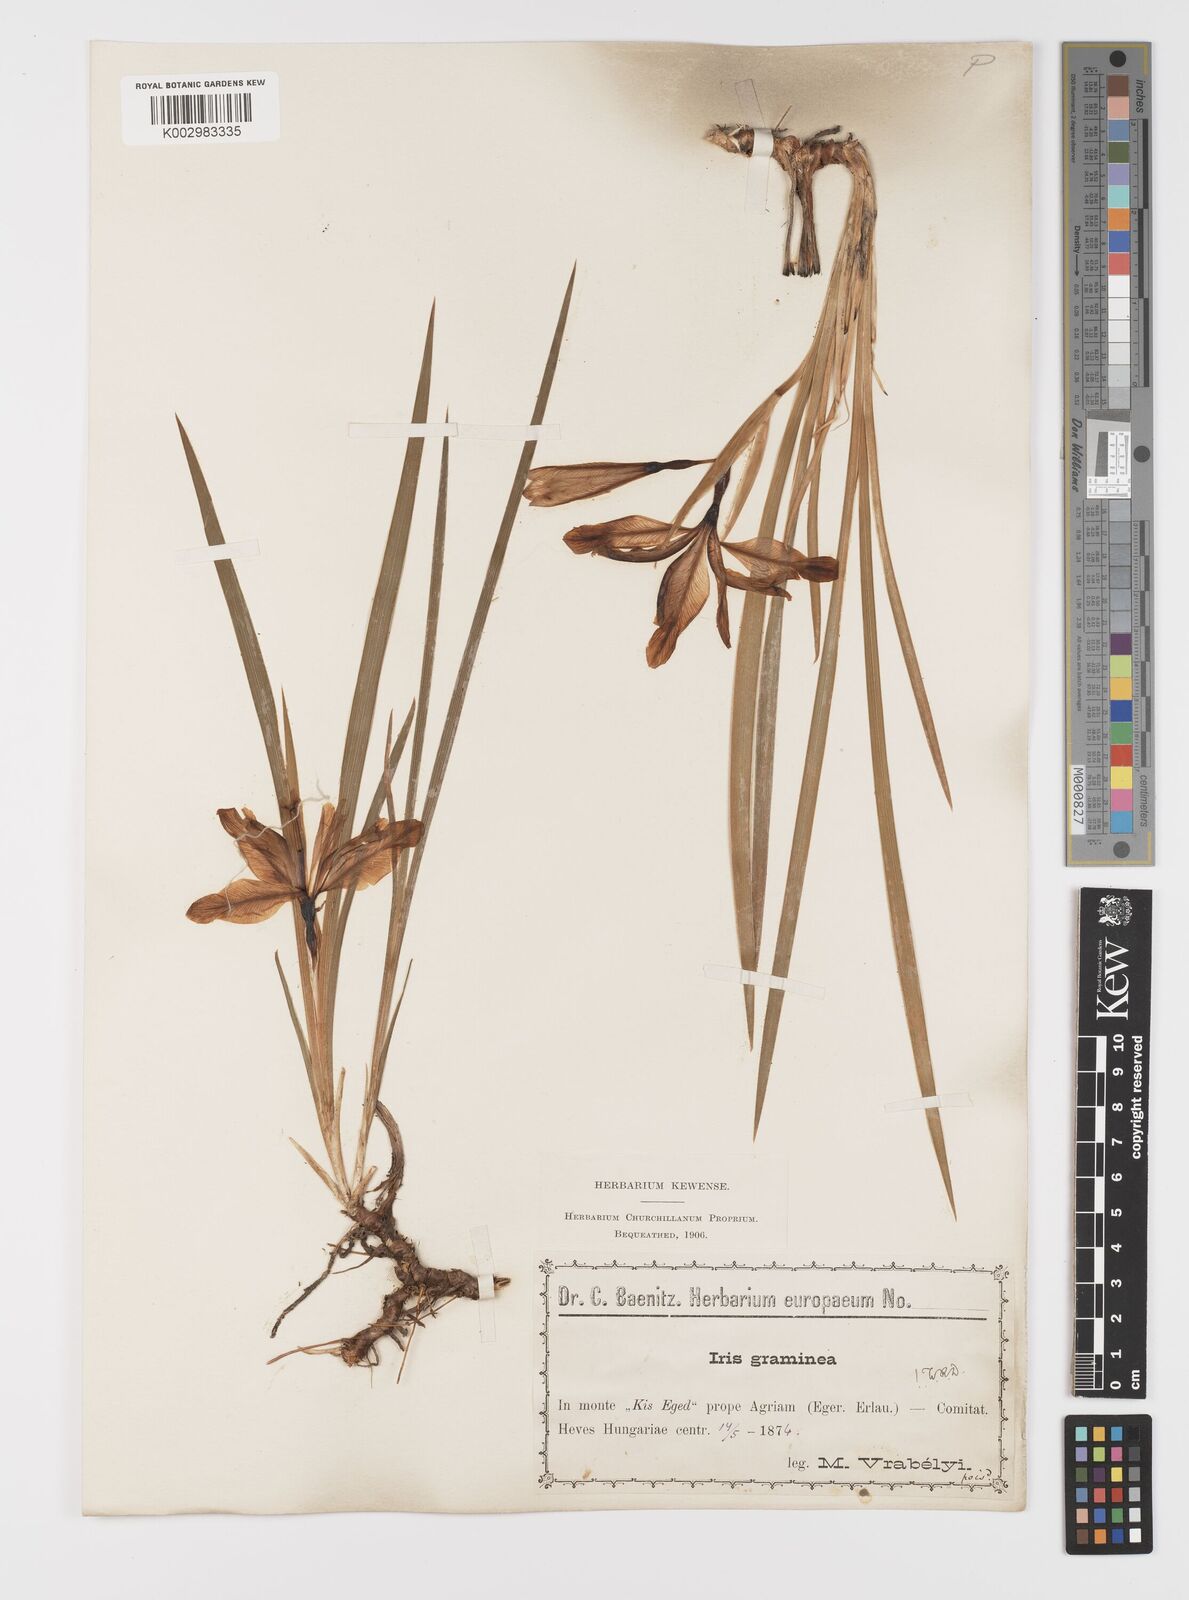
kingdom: Plantae
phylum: Tracheophyta
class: Liliopsida
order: Asparagales
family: Iridaceae
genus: Iris
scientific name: Iris graminea
